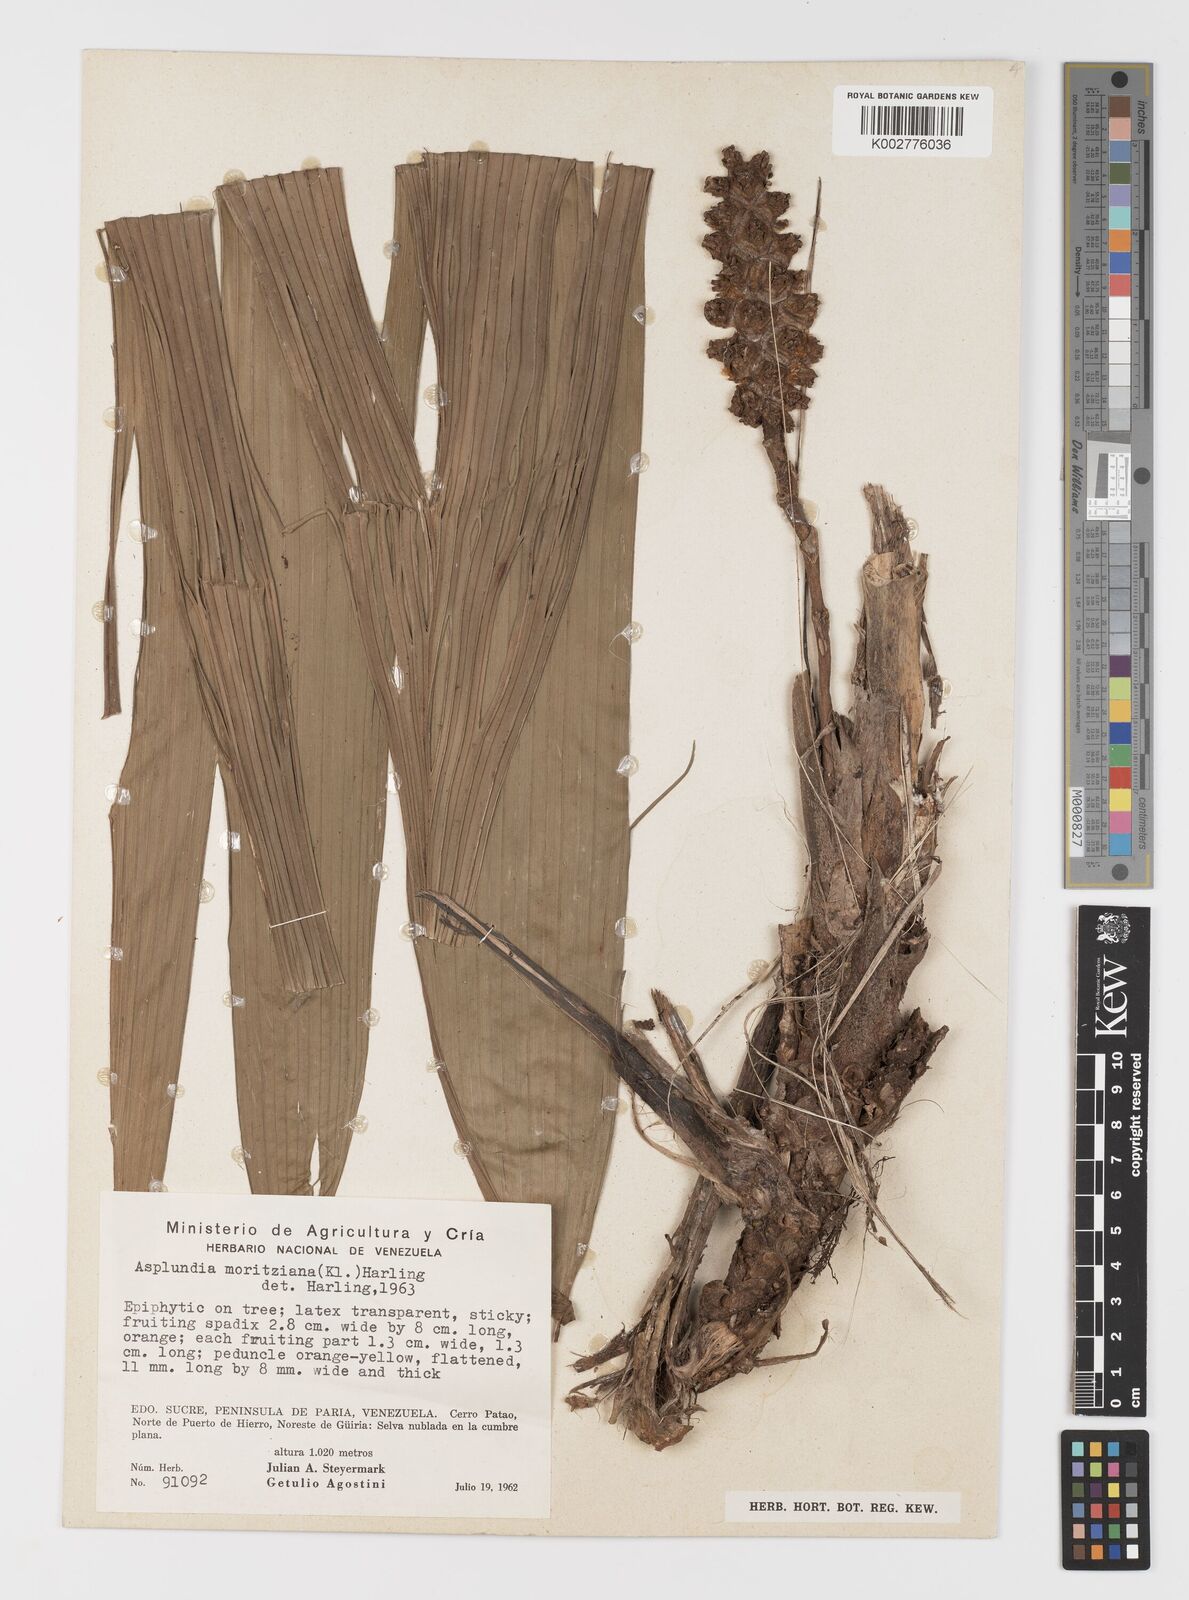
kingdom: Plantae
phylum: Tracheophyta
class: Liliopsida
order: Pandanales
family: Cyclanthaceae
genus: Asplundia
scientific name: Asplundia moritziana
